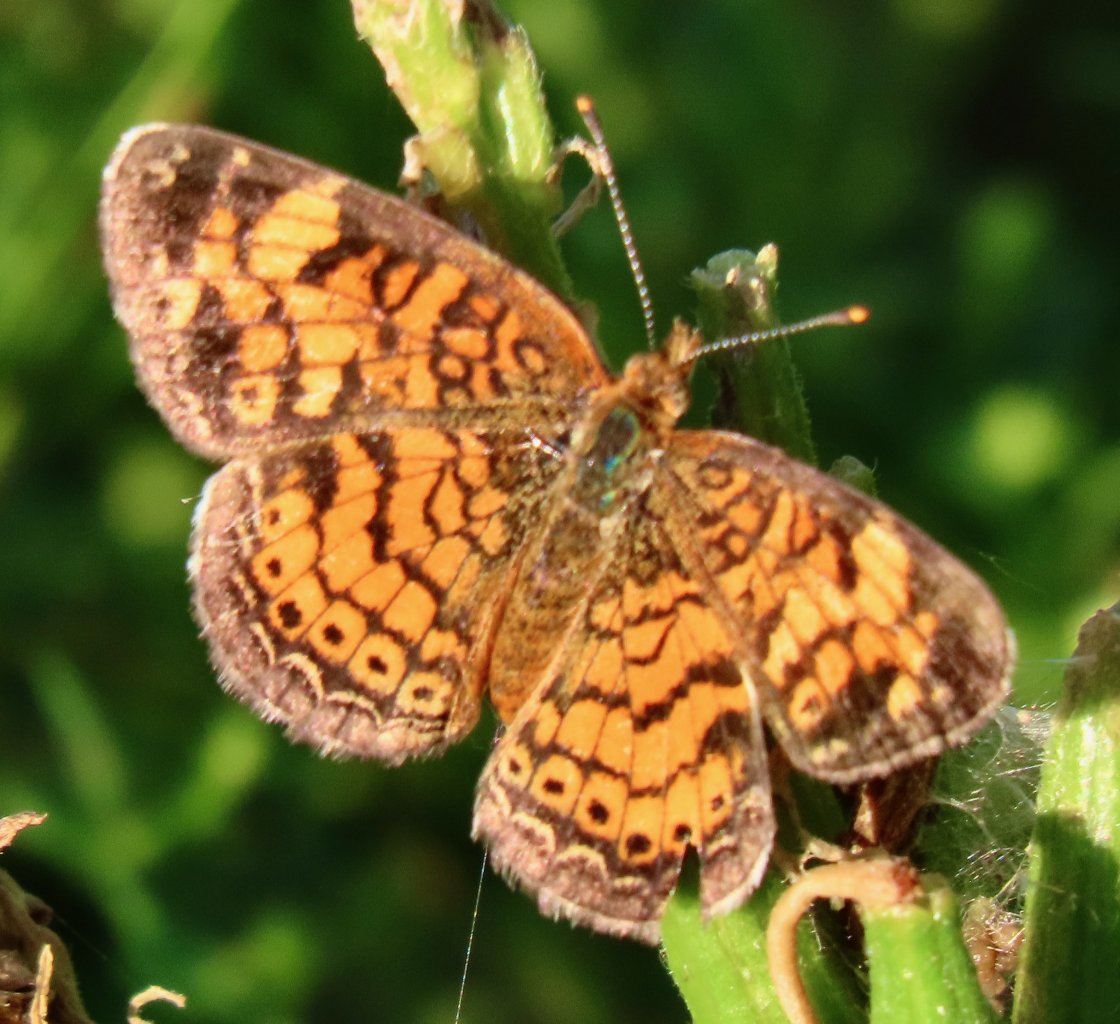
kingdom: Animalia
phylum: Arthropoda
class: Insecta
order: Lepidoptera
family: Nymphalidae
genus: Phyciodes
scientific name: Phyciodes tharos
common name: Pearl Crescent
